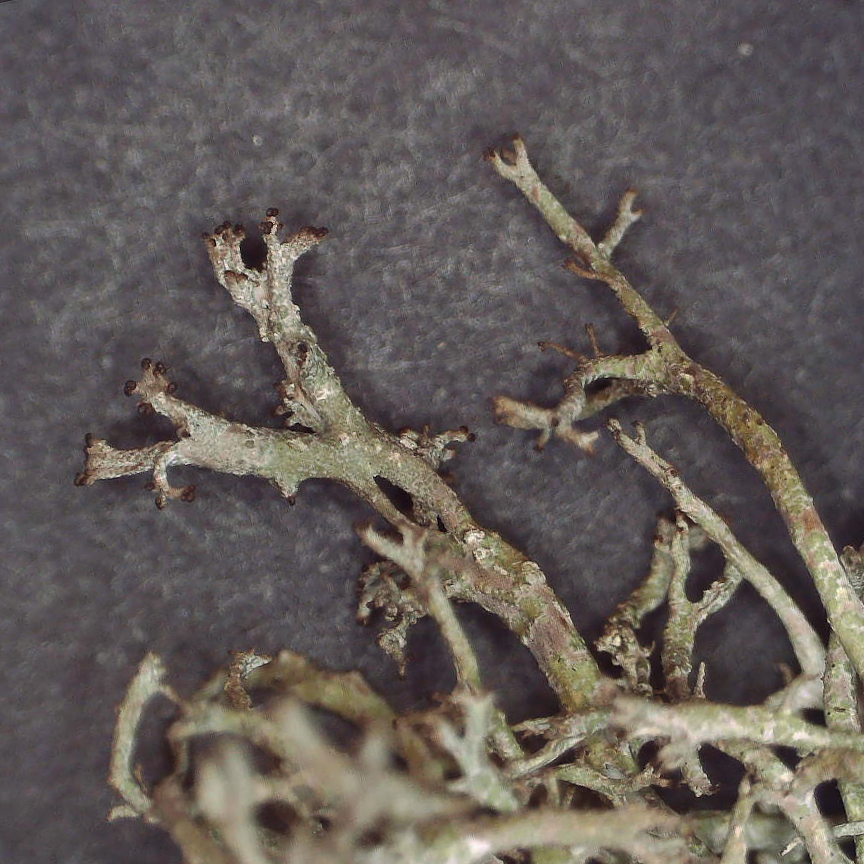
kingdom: Fungi
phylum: Ascomycota
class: Lecanoromycetes
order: Lecanorales
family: Cladoniaceae
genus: Cladonia
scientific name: Cladonia furcata
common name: kløftet bægerlav
